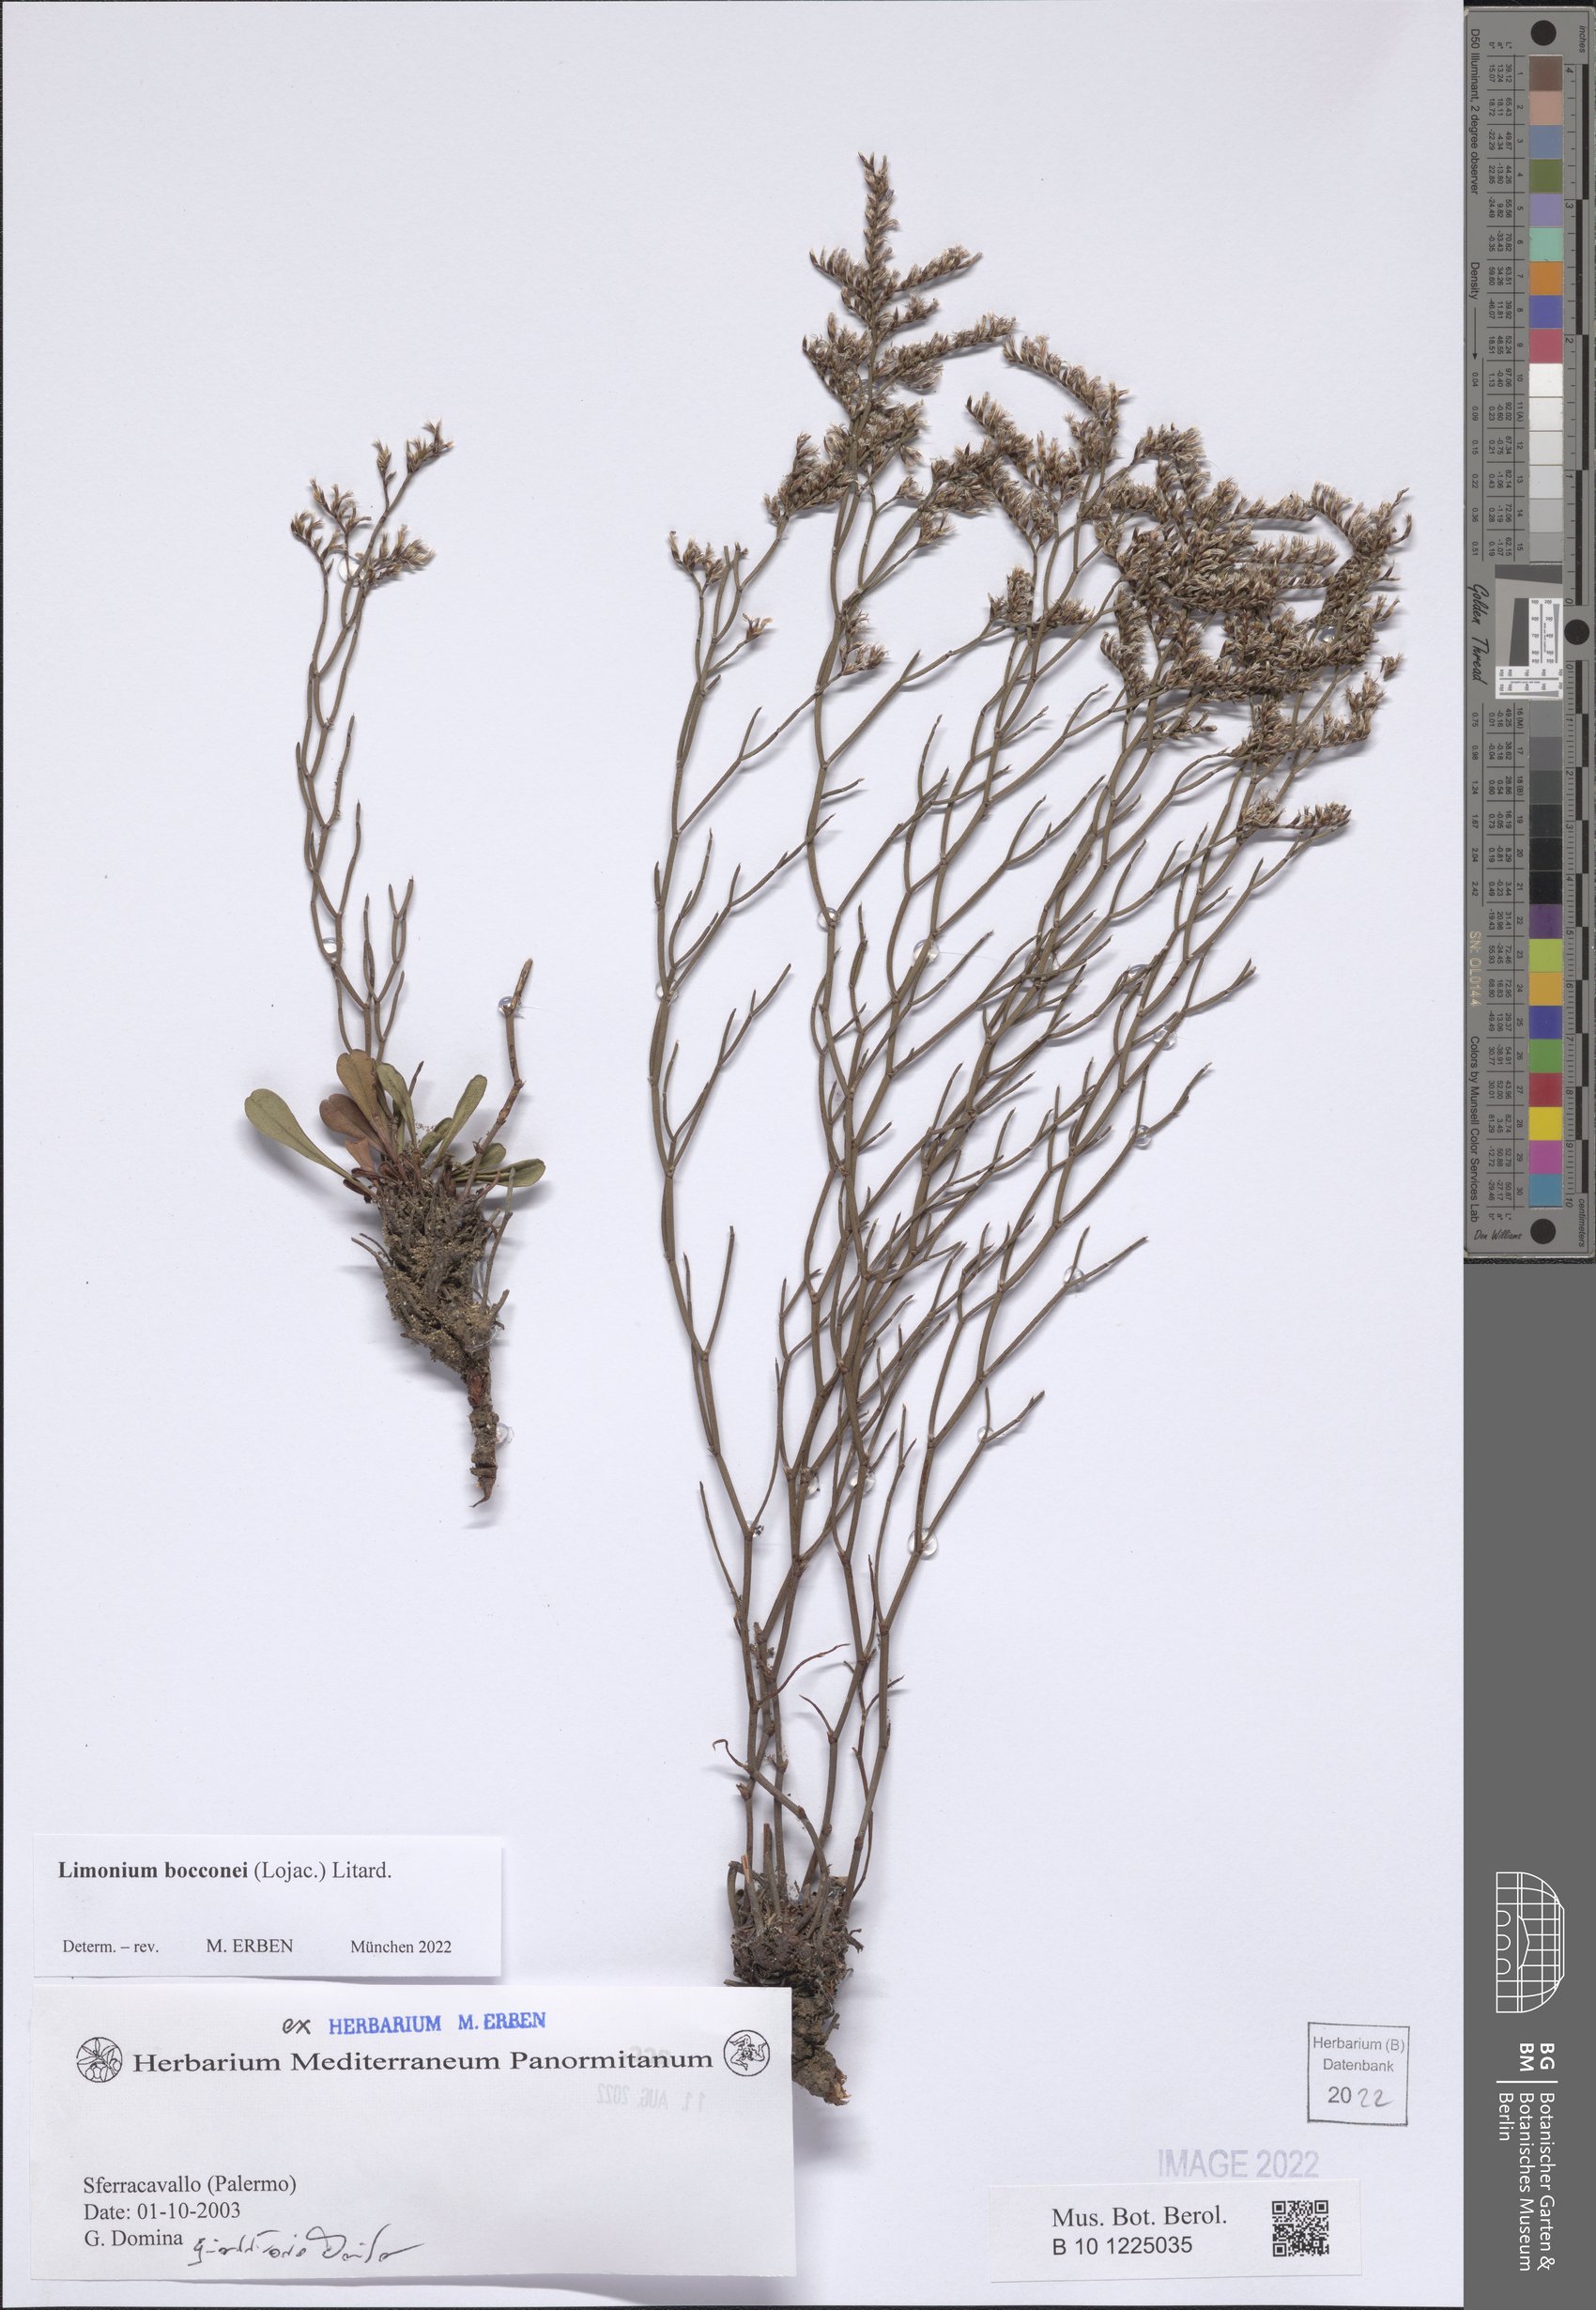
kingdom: Plantae
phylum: Tracheophyta
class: Magnoliopsida
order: Caryophyllales
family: Plumbaginaceae
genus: Limonium
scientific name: Limonium bocconei
